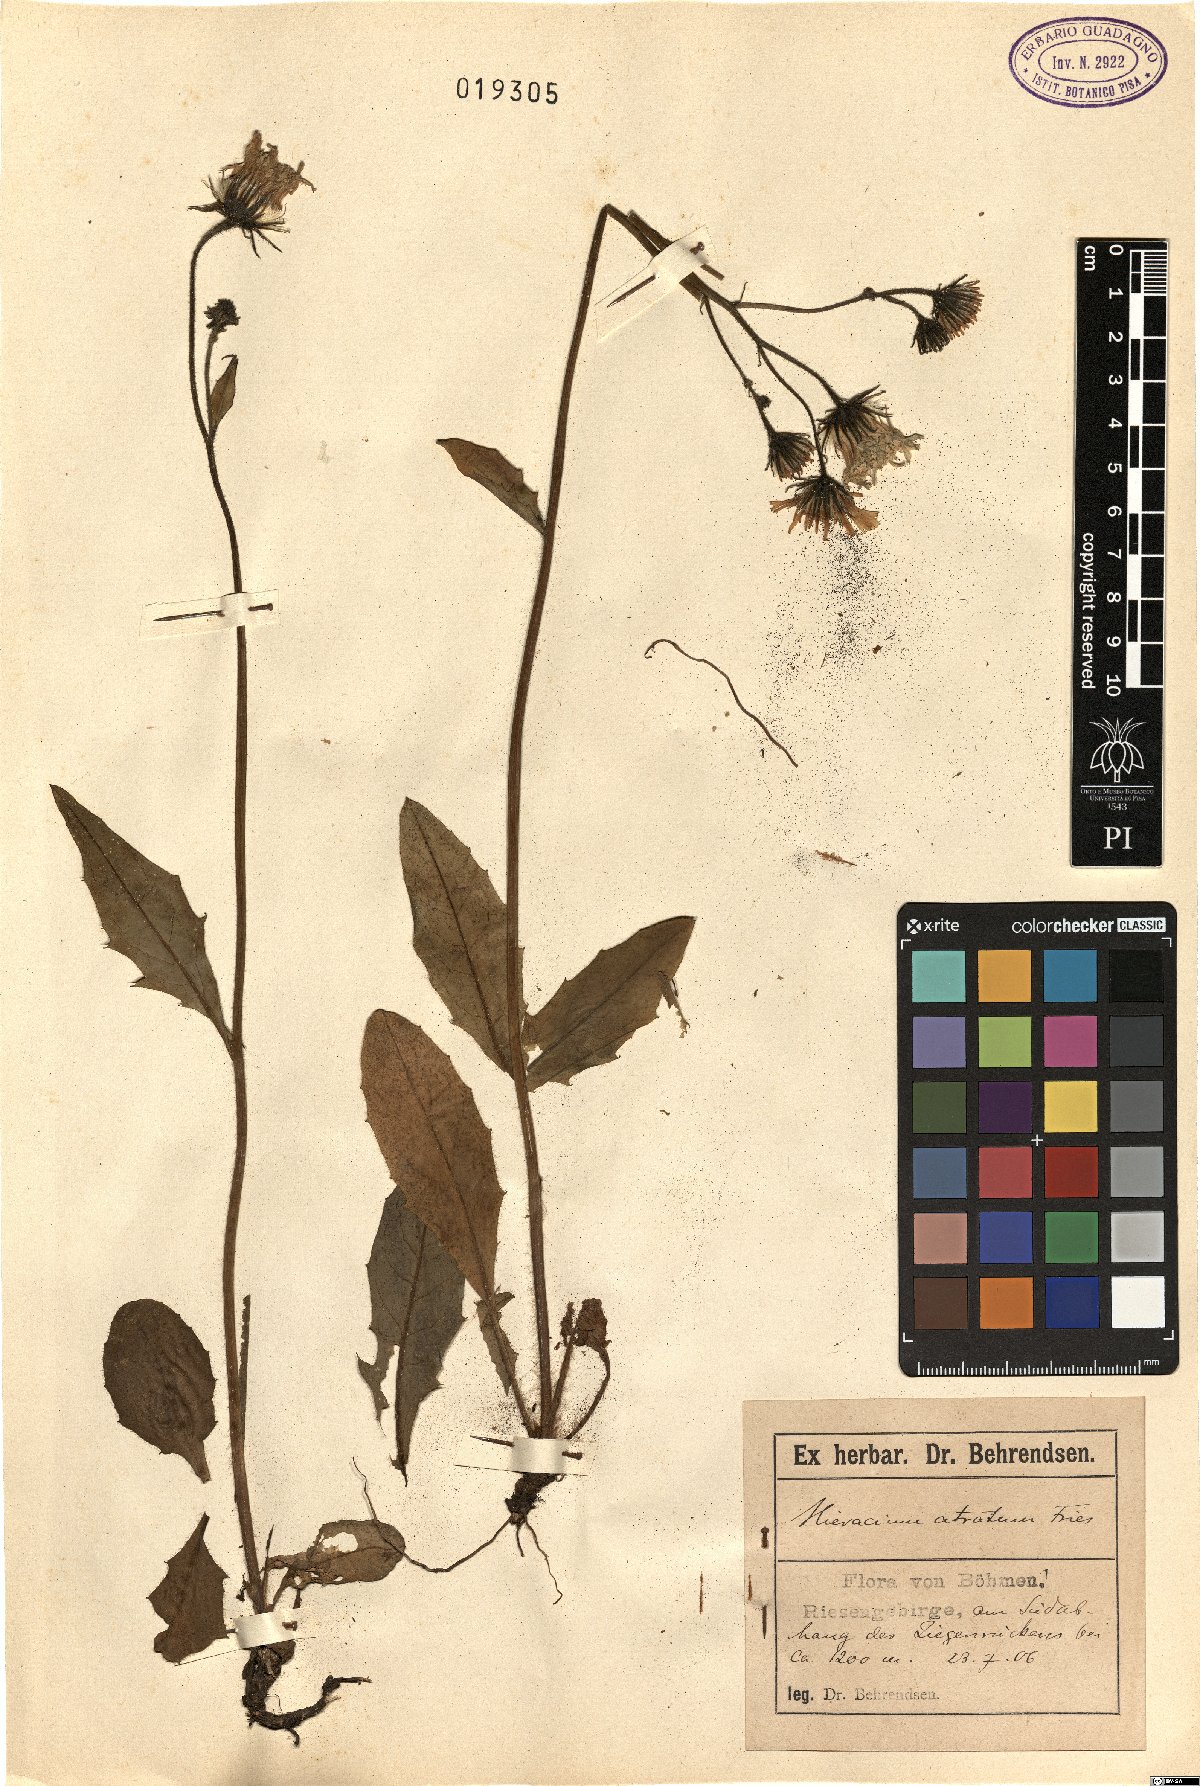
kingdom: Plantae
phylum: Tracheophyta
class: Magnoliopsida
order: Asterales
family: Asteraceae
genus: Hieracium
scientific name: Hieracium atratum
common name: Polar hawkweed
